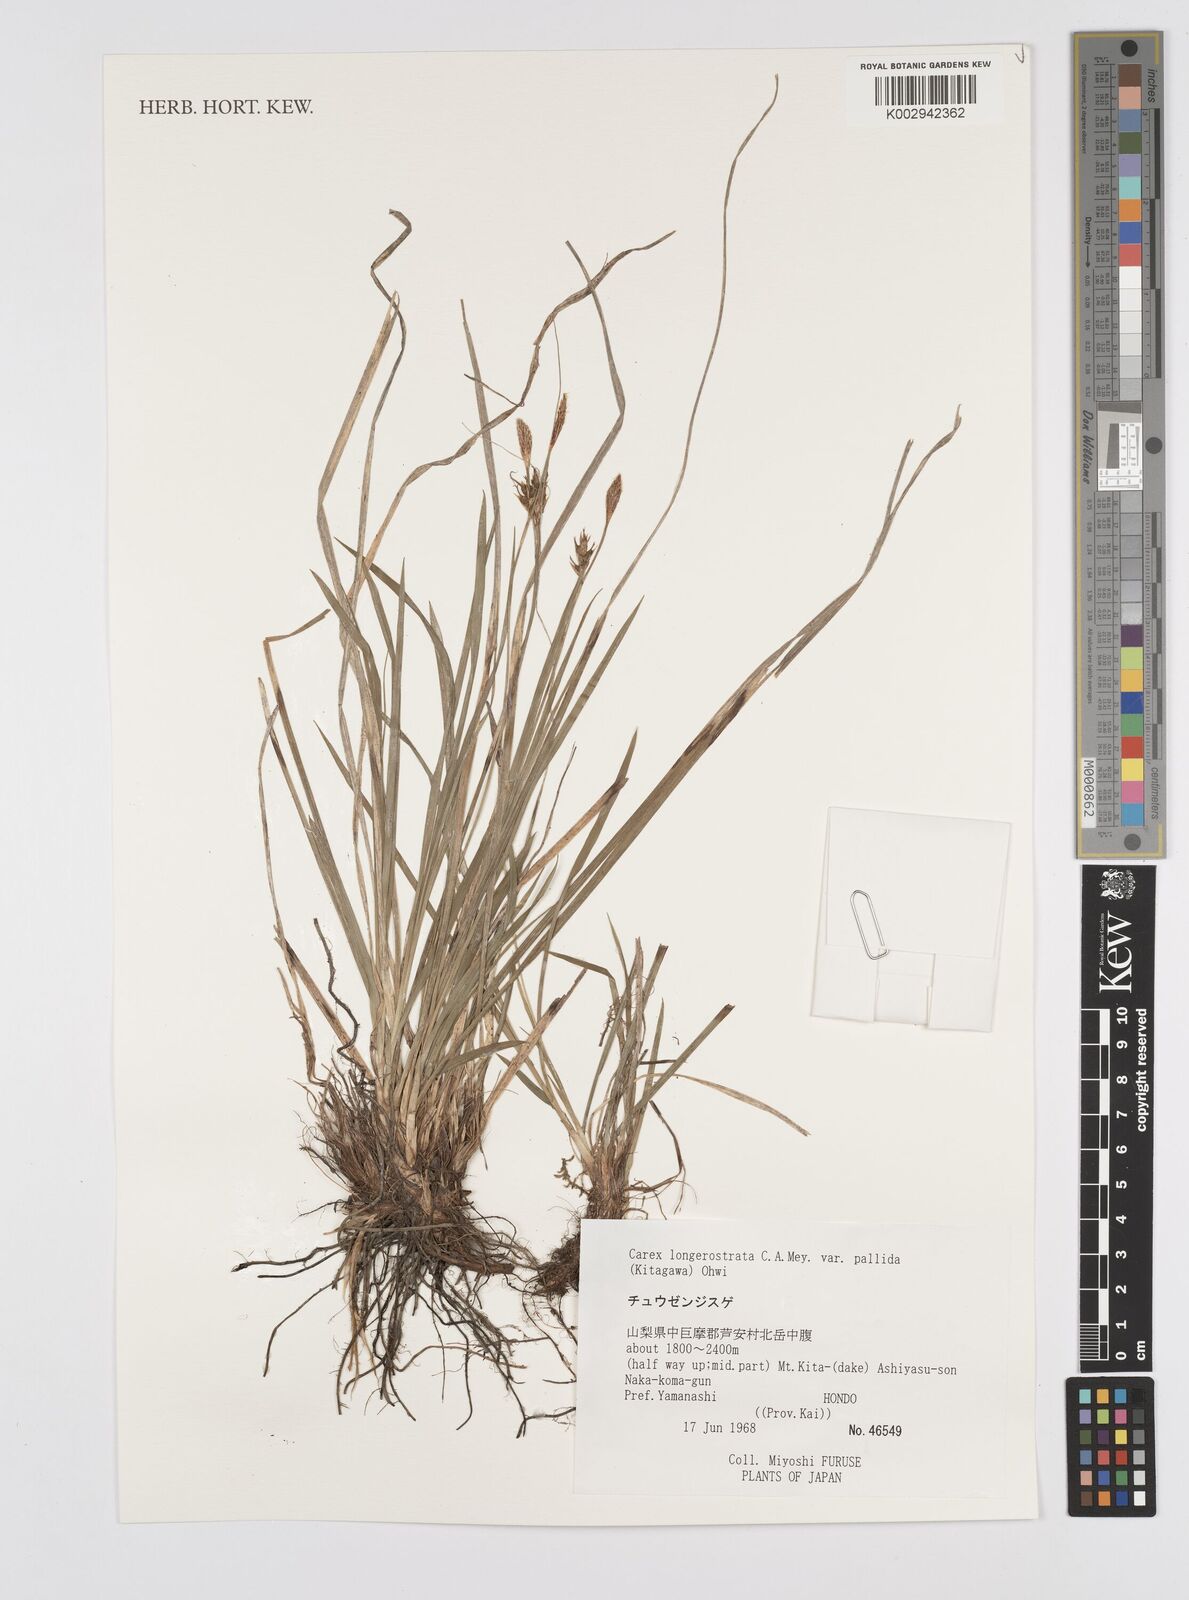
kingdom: Plantae
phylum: Tracheophyta
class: Liliopsida
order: Poales
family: Cyperaceae
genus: Carex
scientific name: Carex longerostrata
